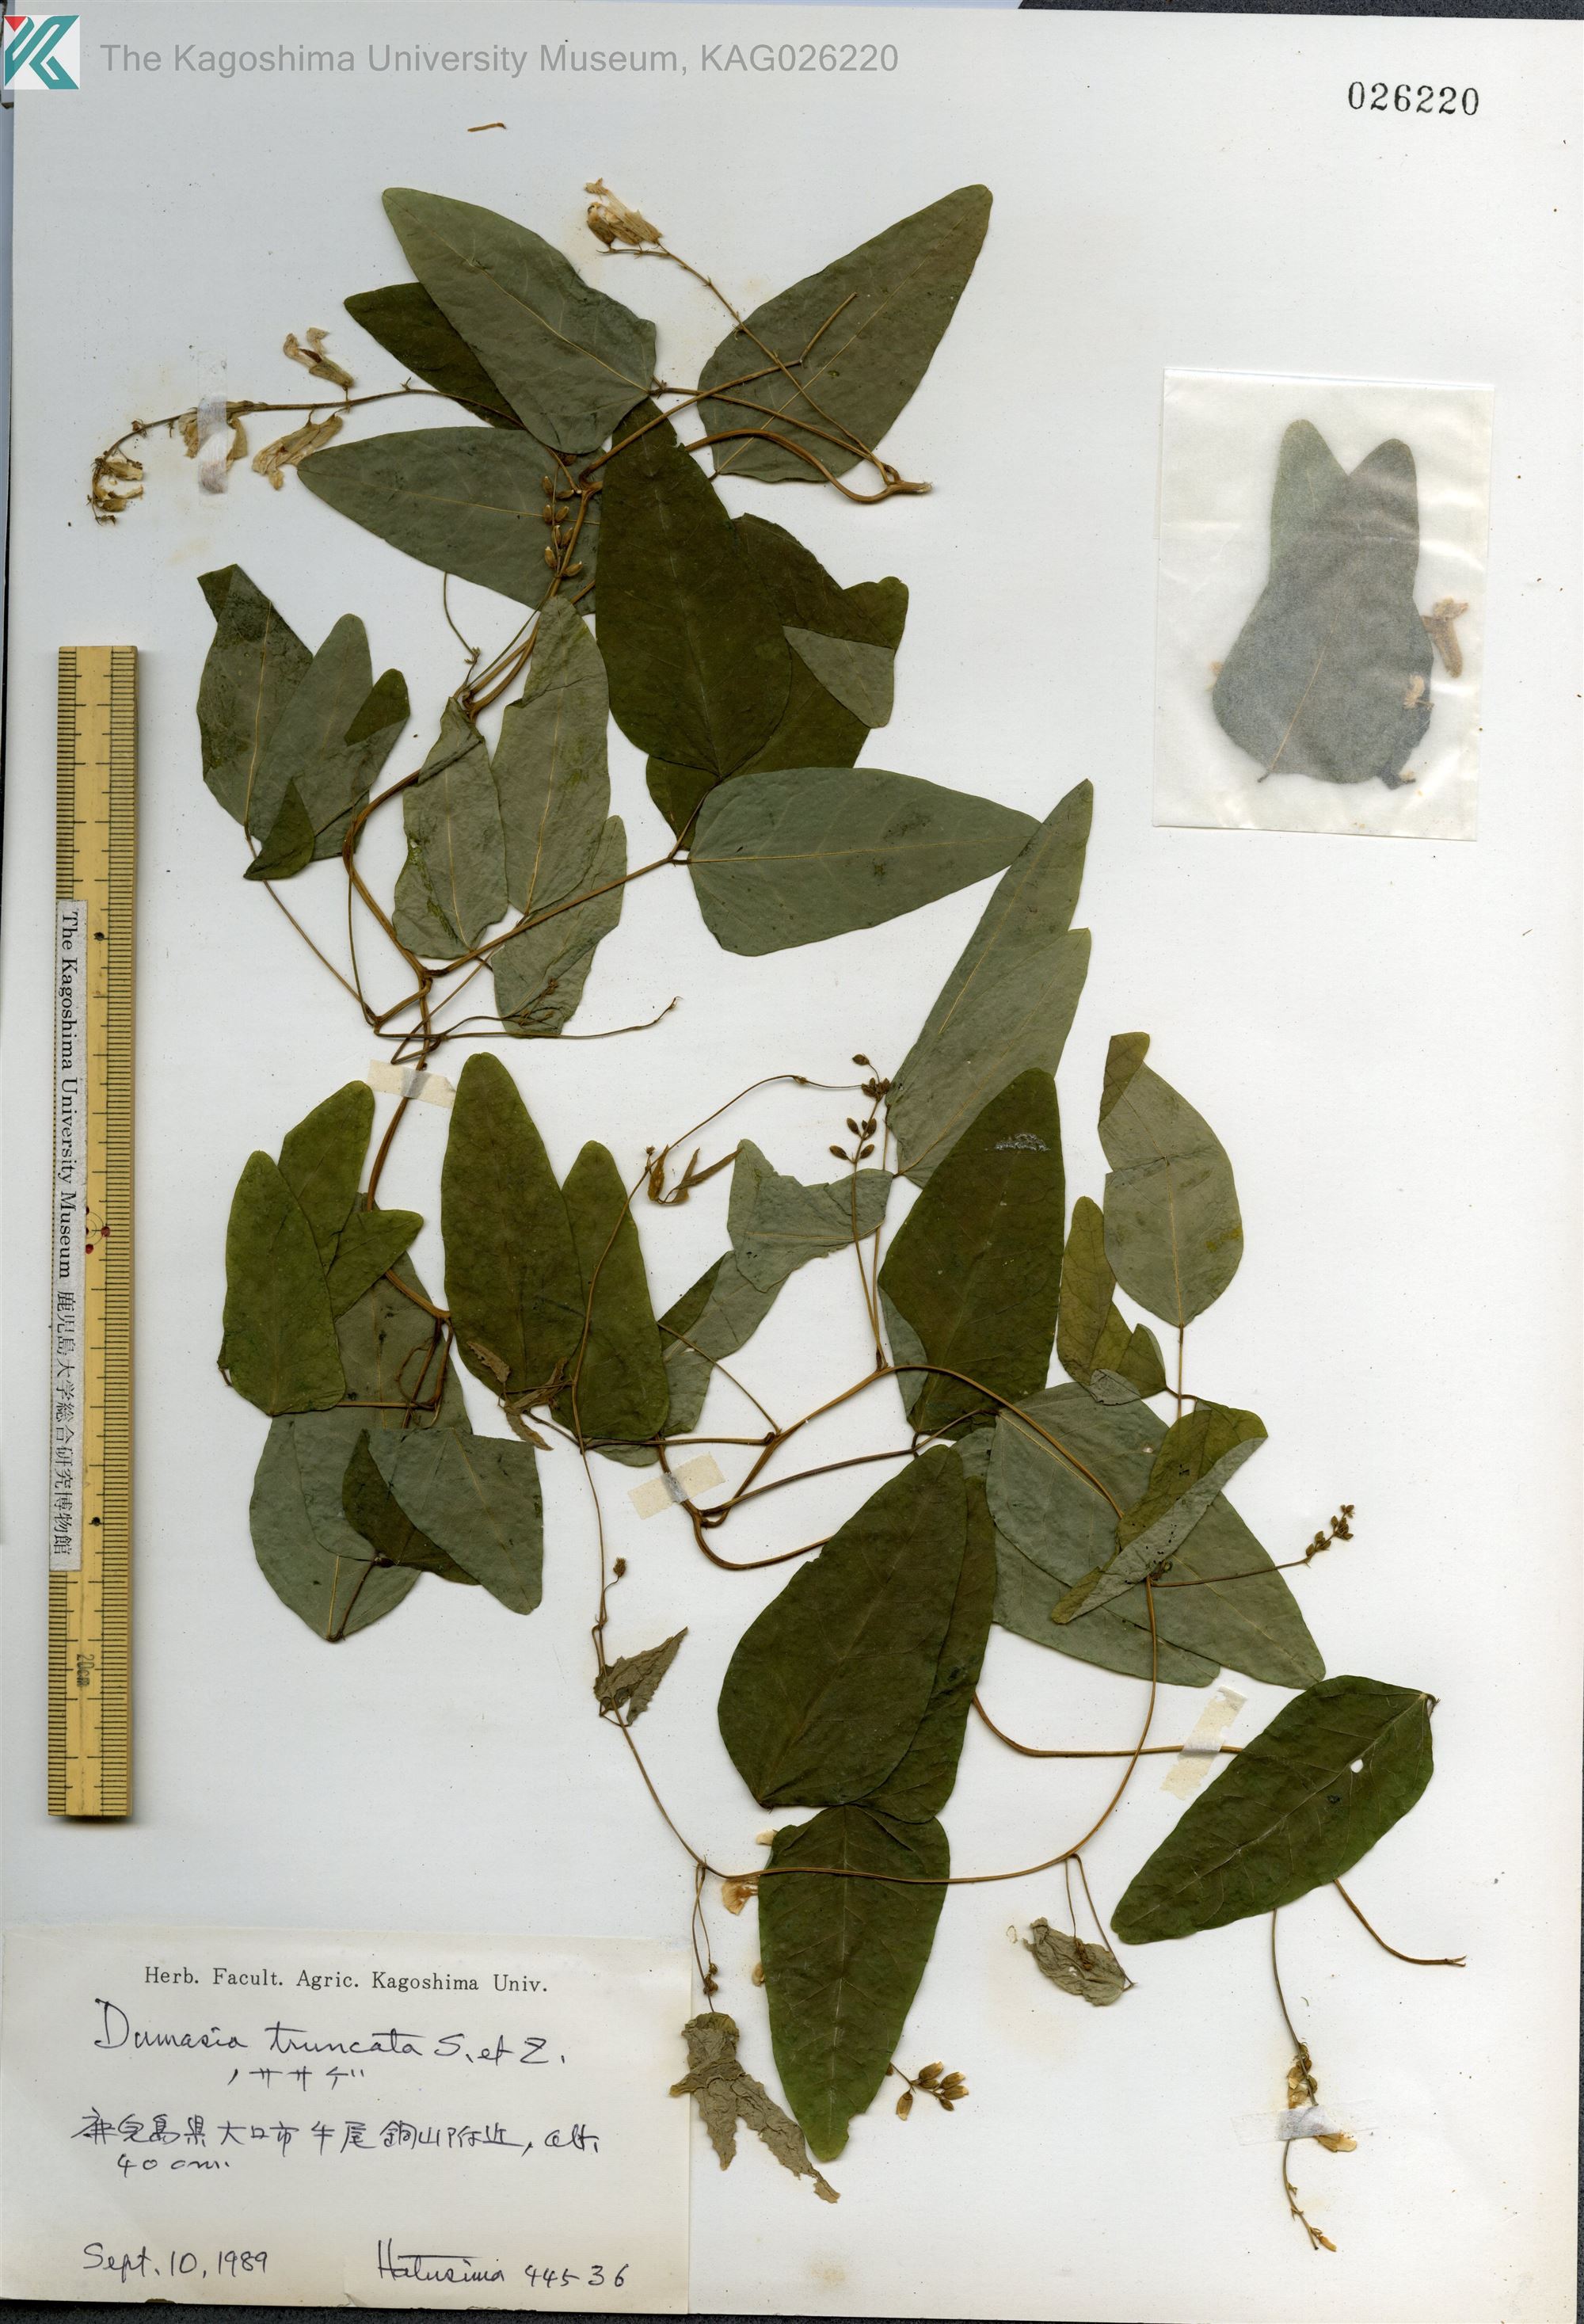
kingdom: Plantae
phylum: Tracheophyta
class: Magnoliopsida
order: Fabales
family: Fabaceae
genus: Dumasia
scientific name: Dumasia truncata
